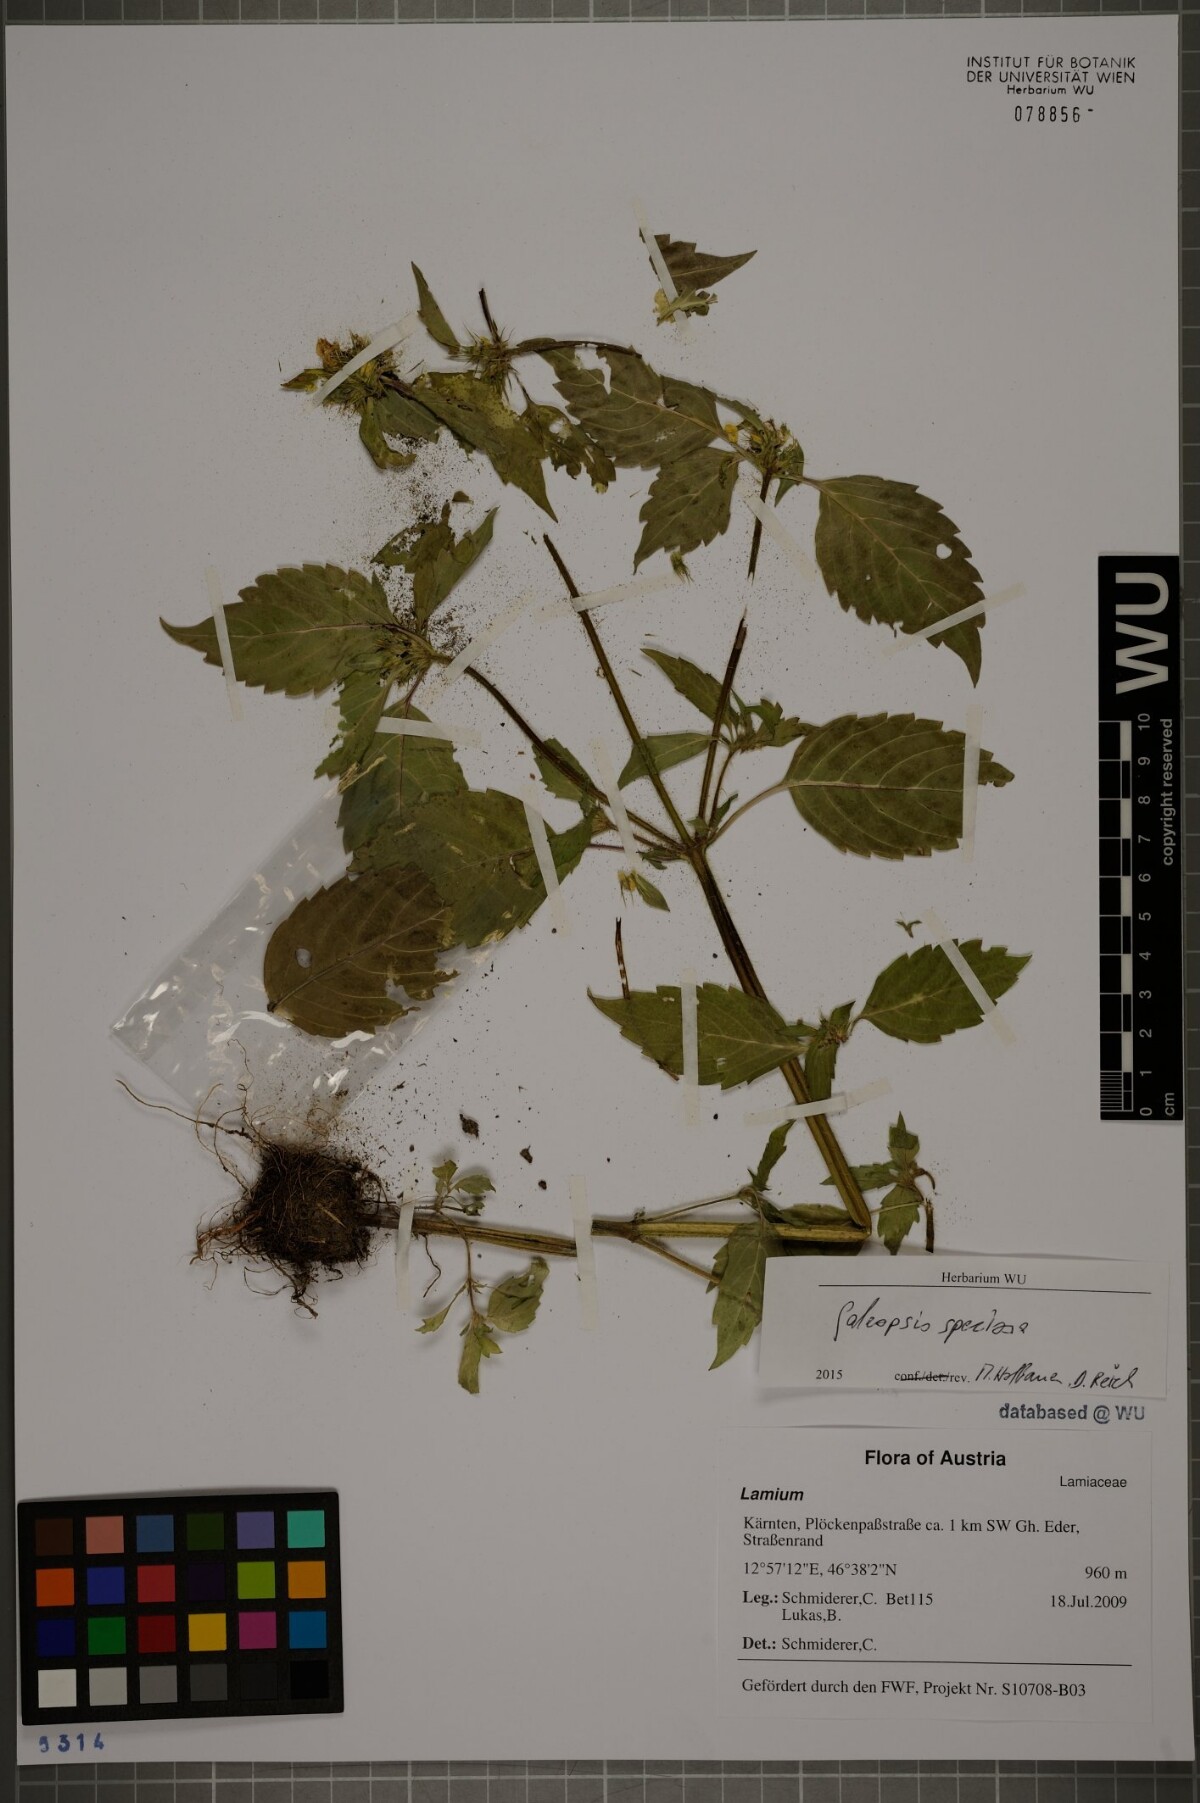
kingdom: Plantae
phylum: Tracheophyta
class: Magnoliopsida
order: Lamiales
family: Lamiaceae
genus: Galeopsis
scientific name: Galeopsis speciosa
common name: Large-flowered hemp-nettle
